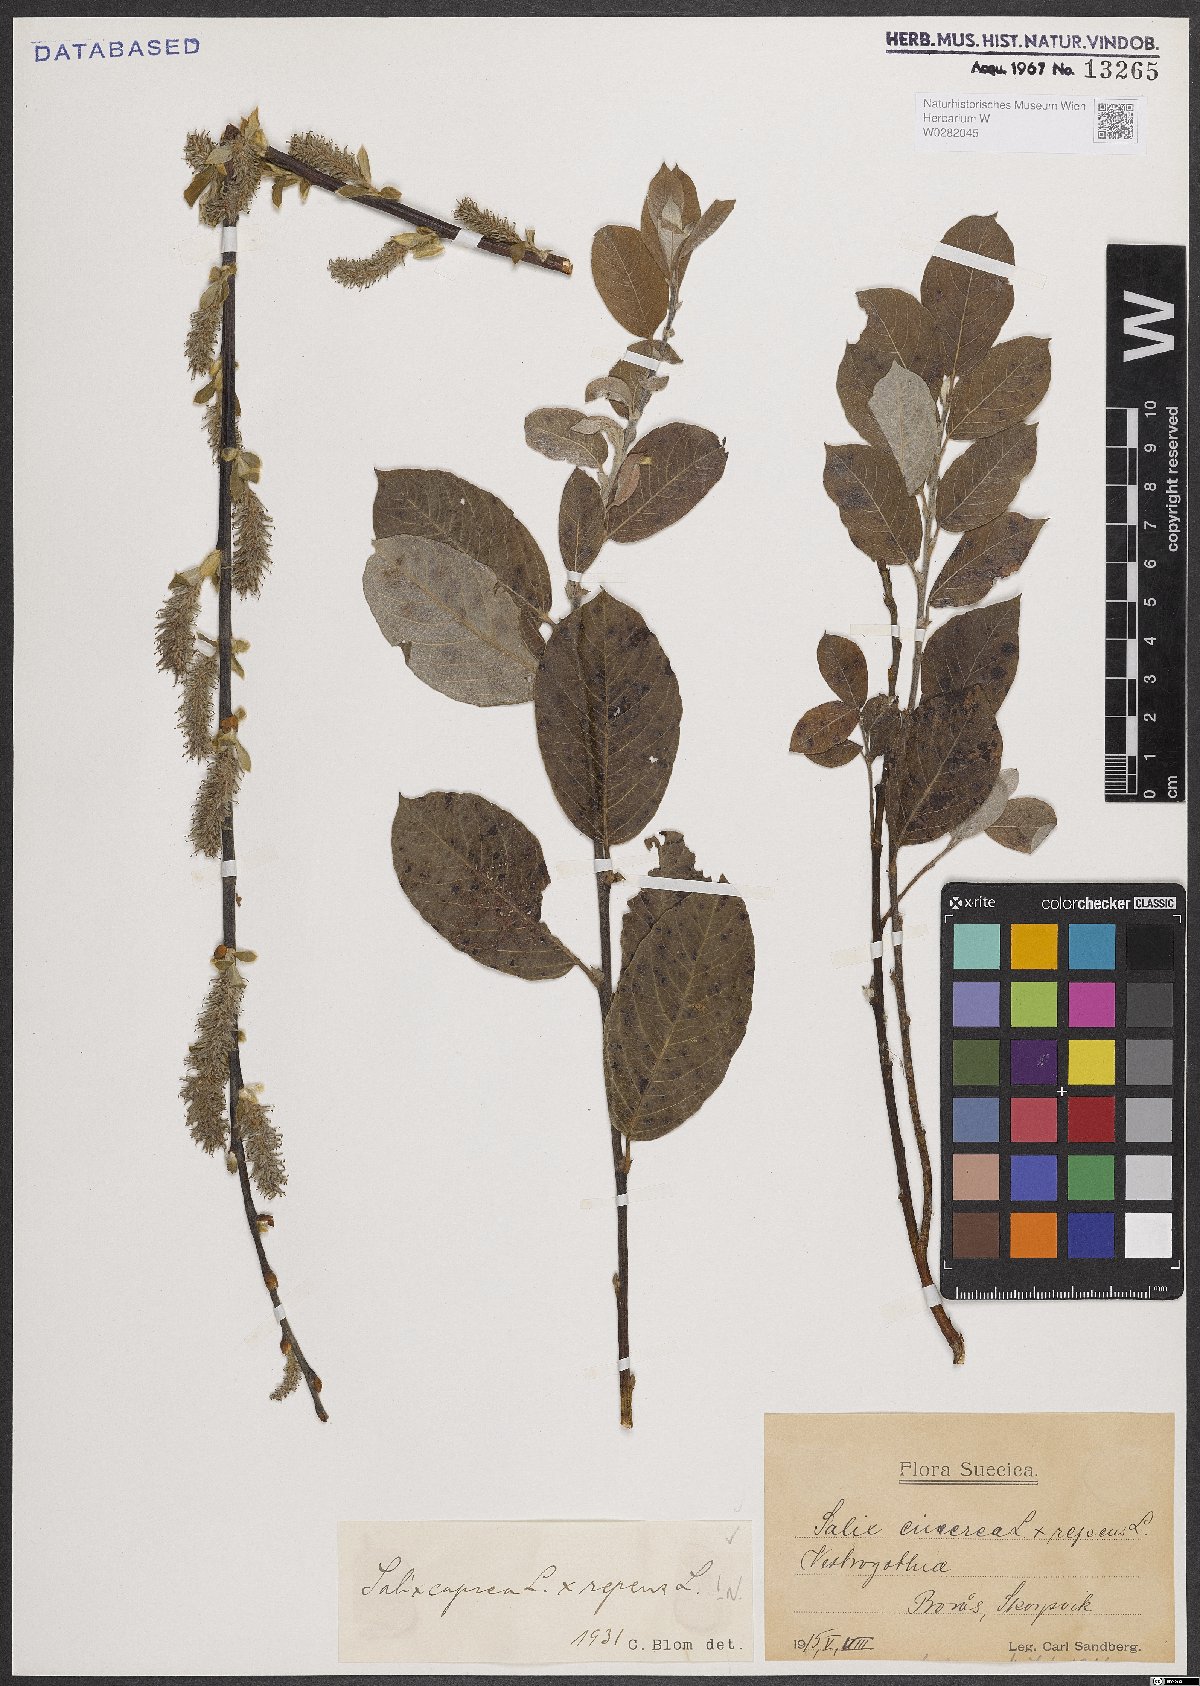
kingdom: Plantae
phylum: Tracheophyta
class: Magnoliopsida
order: Malpighiales
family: Salicaceae
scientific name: Salicaceae
